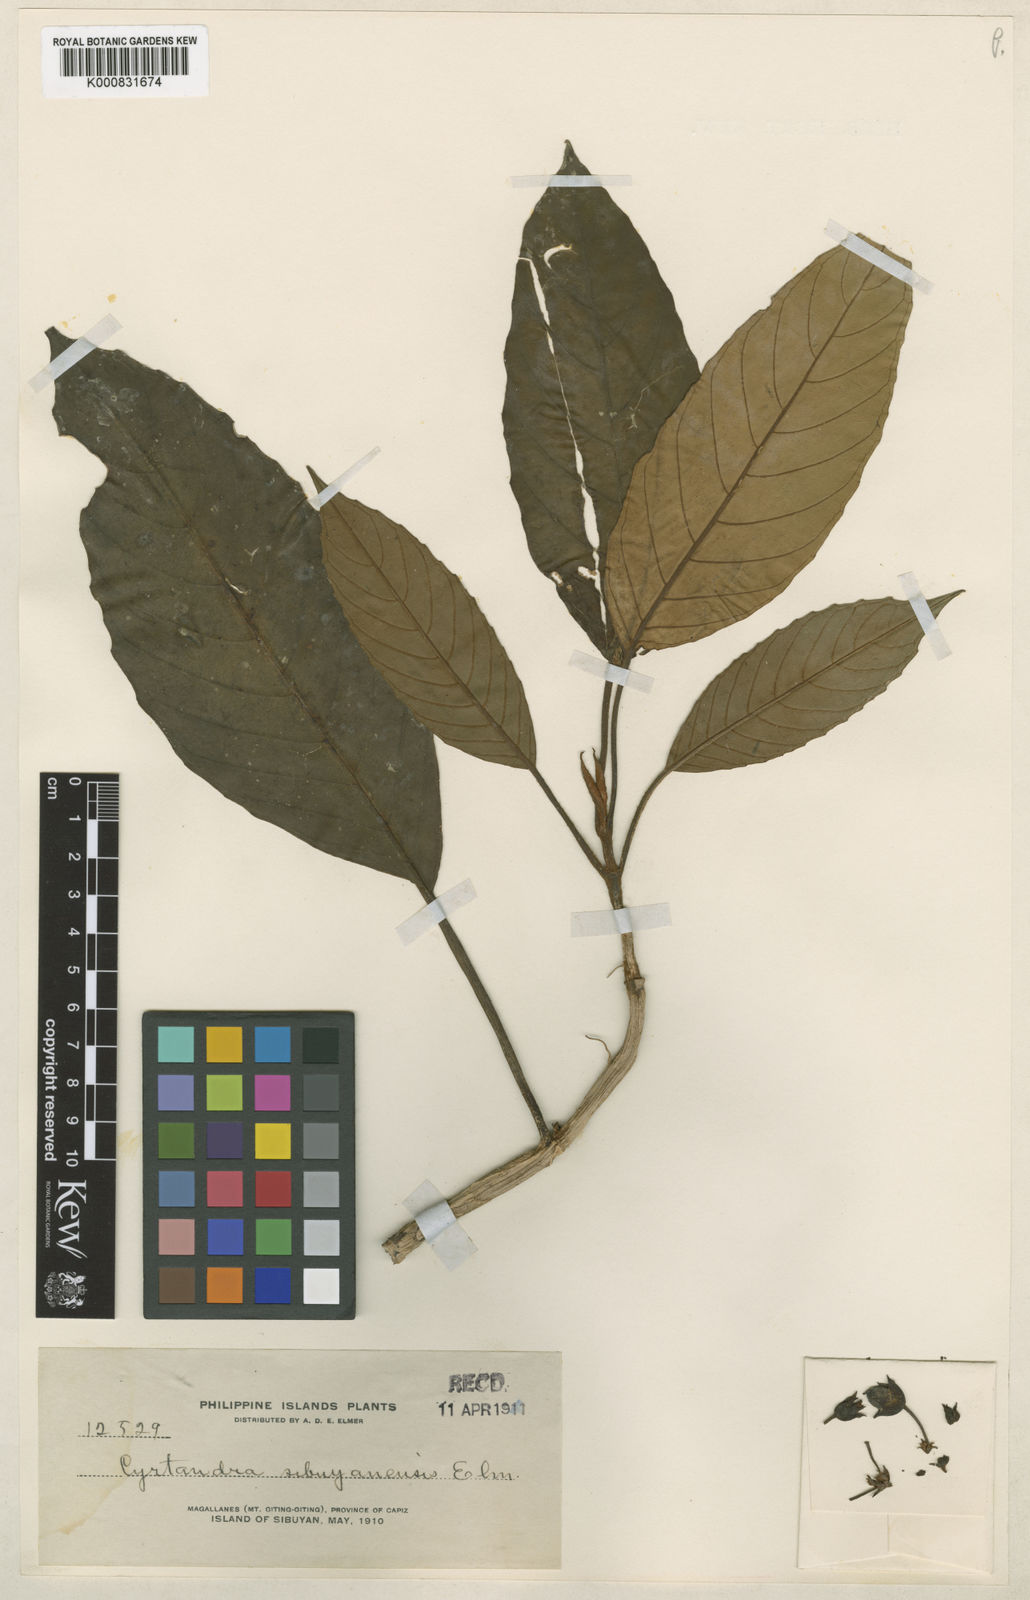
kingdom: Plantae
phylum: Tracheophyta
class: Magnoliopsida
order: Lamiales
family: Gesneriaceae
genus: Cyrtandra
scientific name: Cyrtandra sibuyanensis
